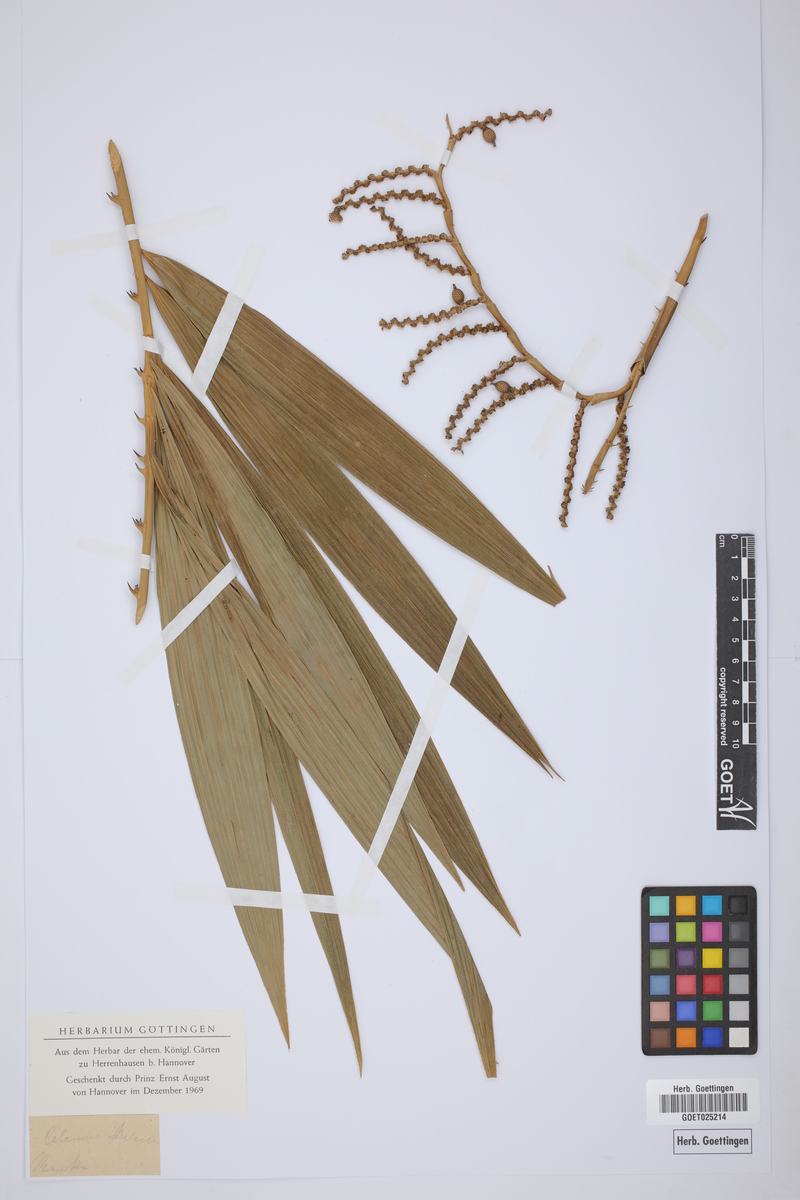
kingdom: Plantae
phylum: Tracheophyta
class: Liliopsida
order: Arecales
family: Arecaceae
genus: Calamus
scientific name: Calamus
